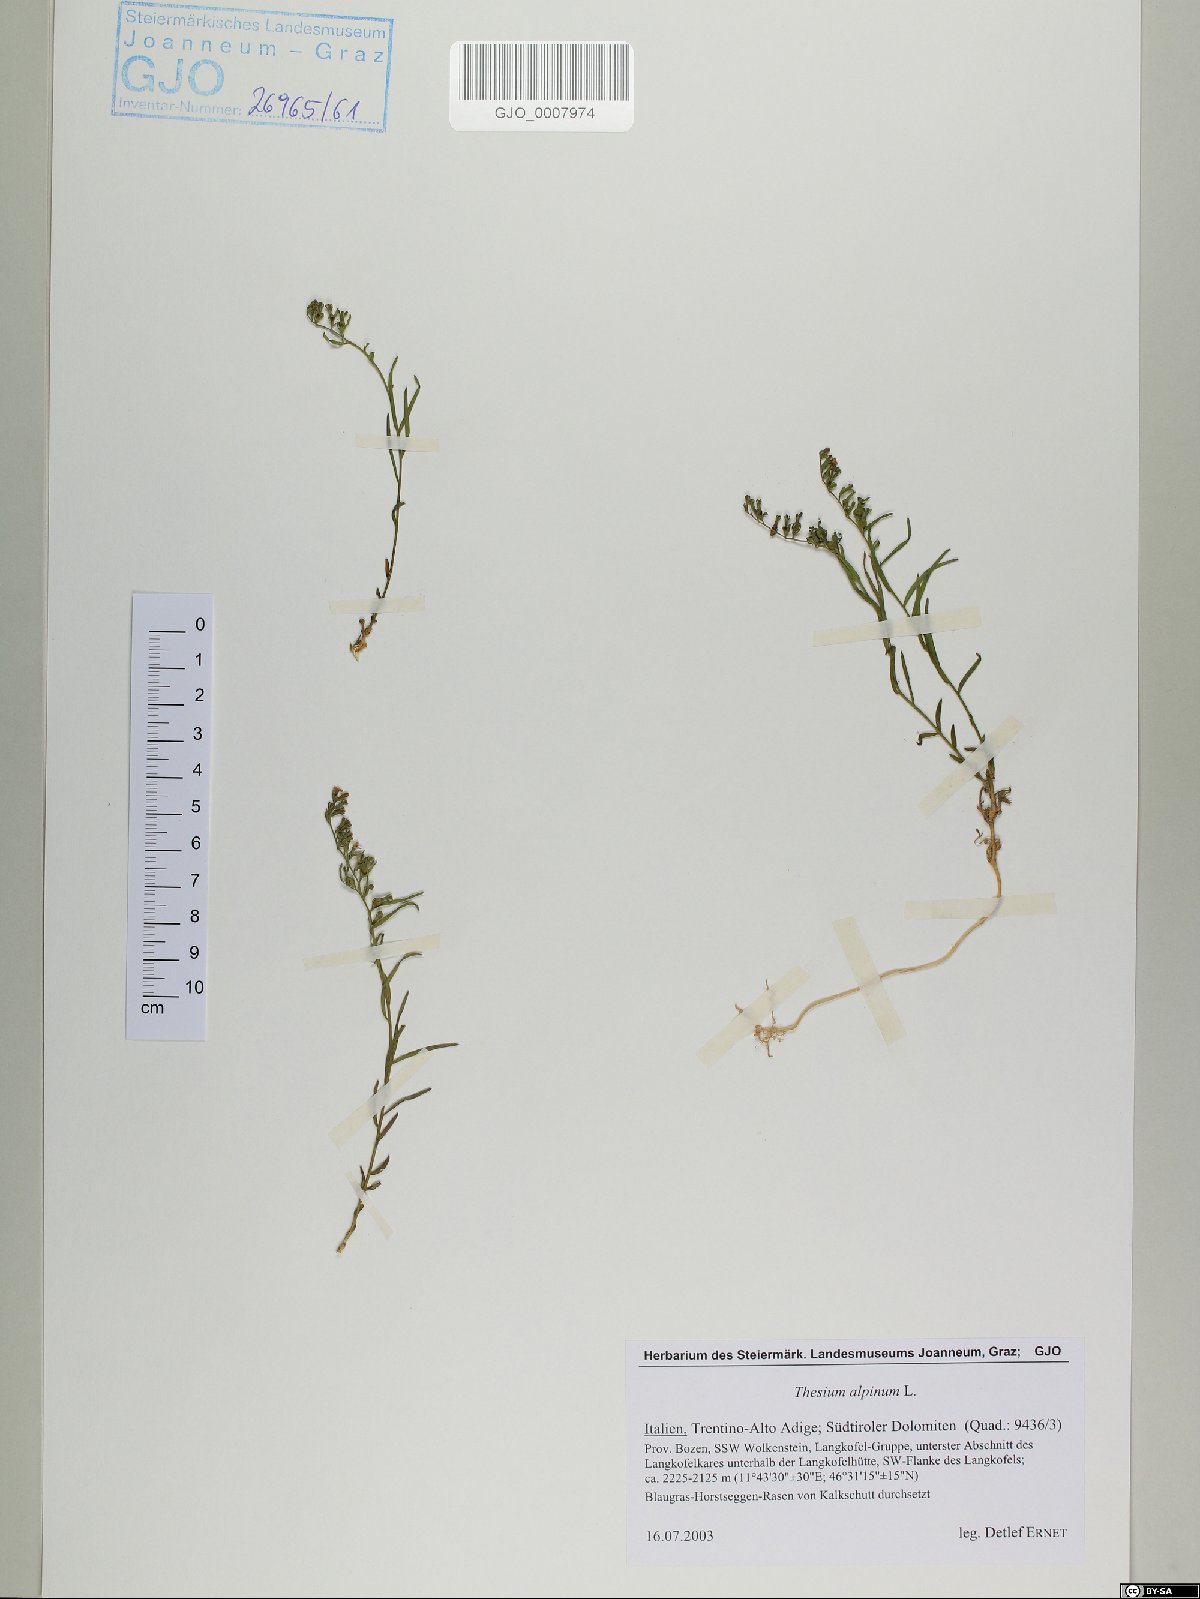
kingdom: Plantae
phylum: Tracheophyta
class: Magnoliopsida
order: Santalales
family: Thesiaceae
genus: Thesium
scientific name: Thesium alpinum
